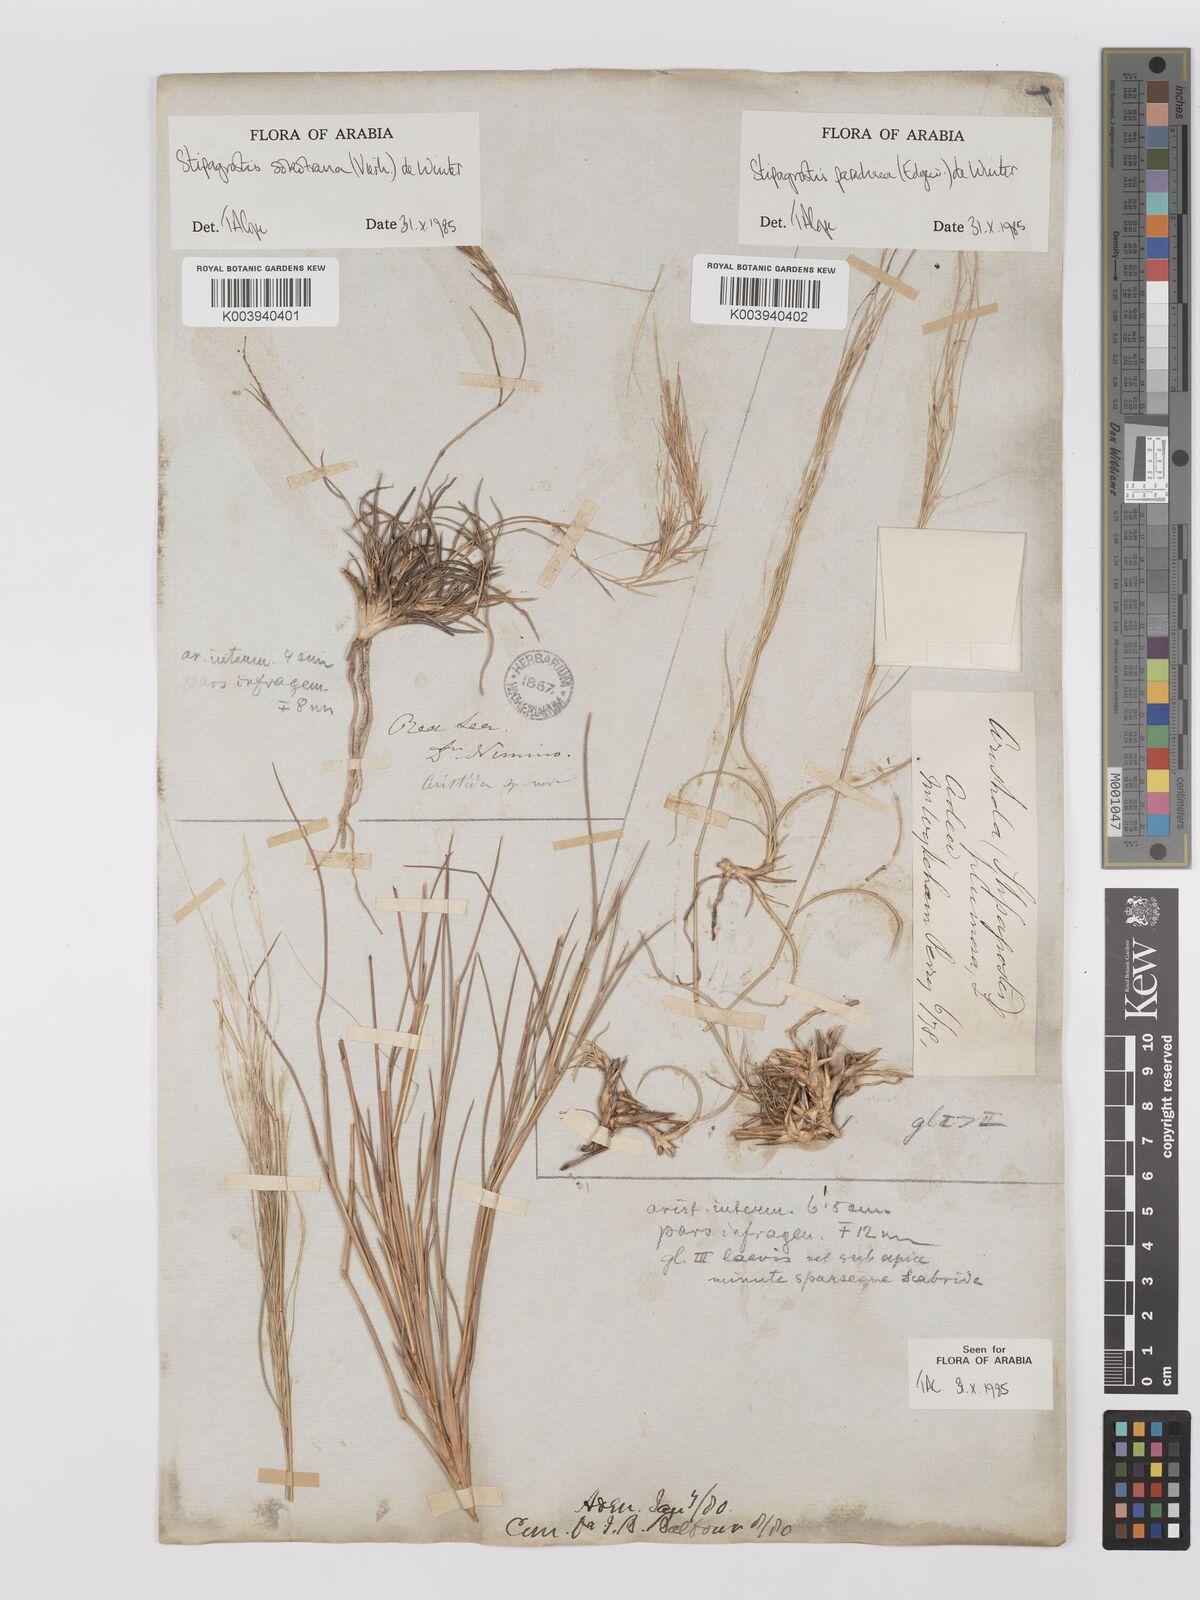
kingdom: Plantae
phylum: Tracheophyta
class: Liliopsida
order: Poales
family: Poaceae
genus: Stipagrostis
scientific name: Stipagrostis paradisea
